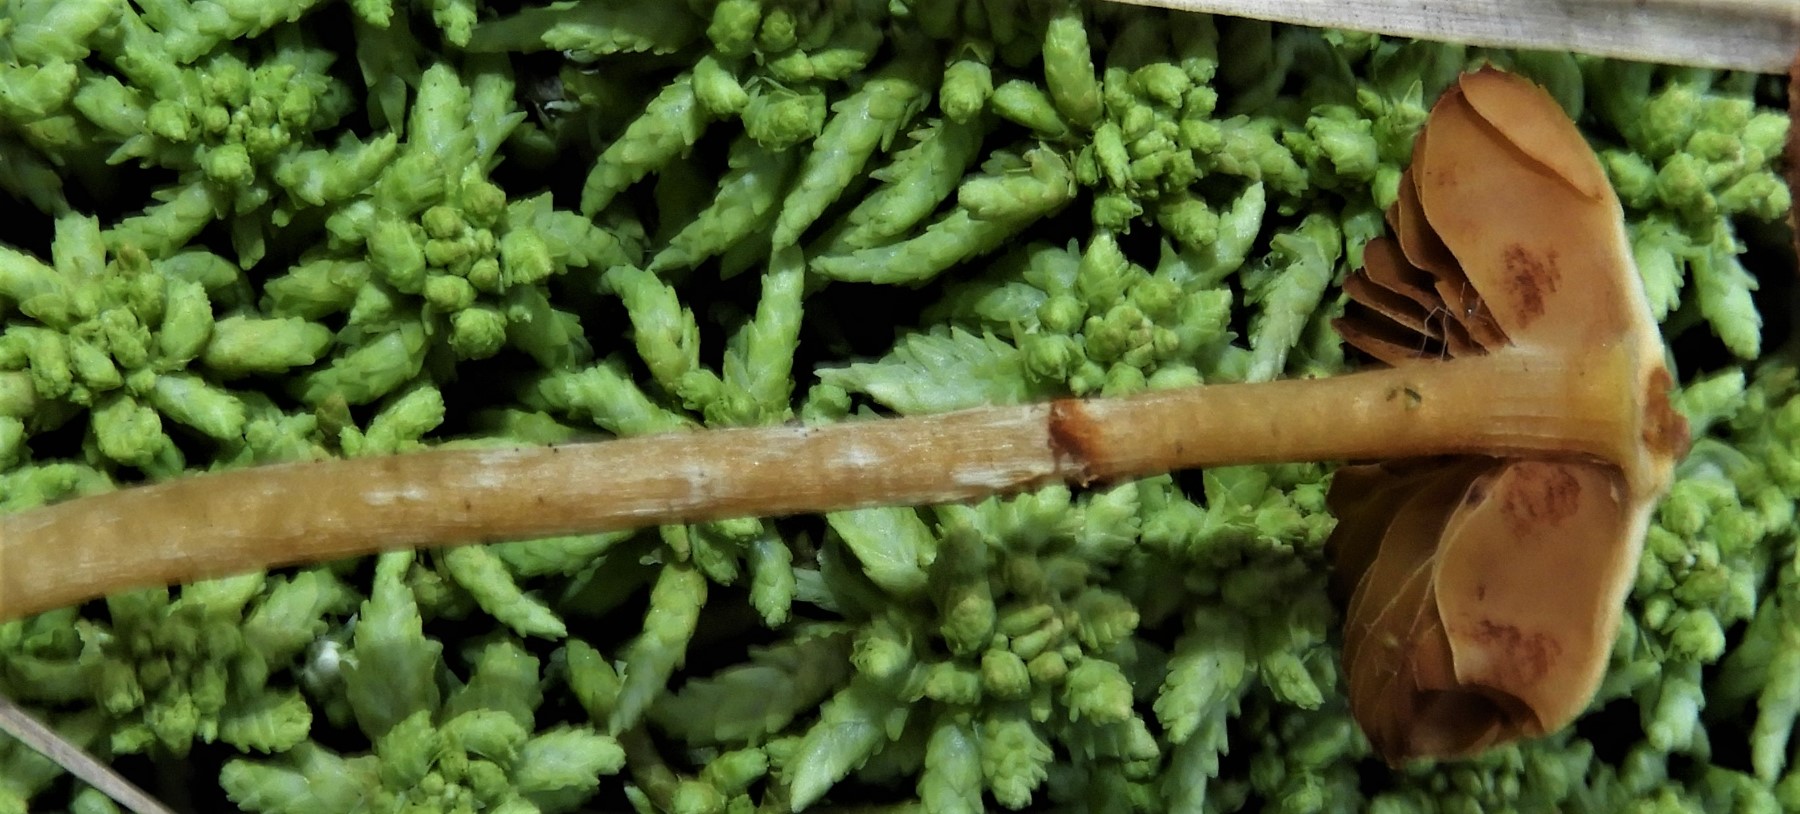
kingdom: Fungi
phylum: Basidiomycota
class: Agaricomycetes
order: Agaricales
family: Hymenogastraceae
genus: Galerina
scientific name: Galerina paludosa
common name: mose-hjelmhat
